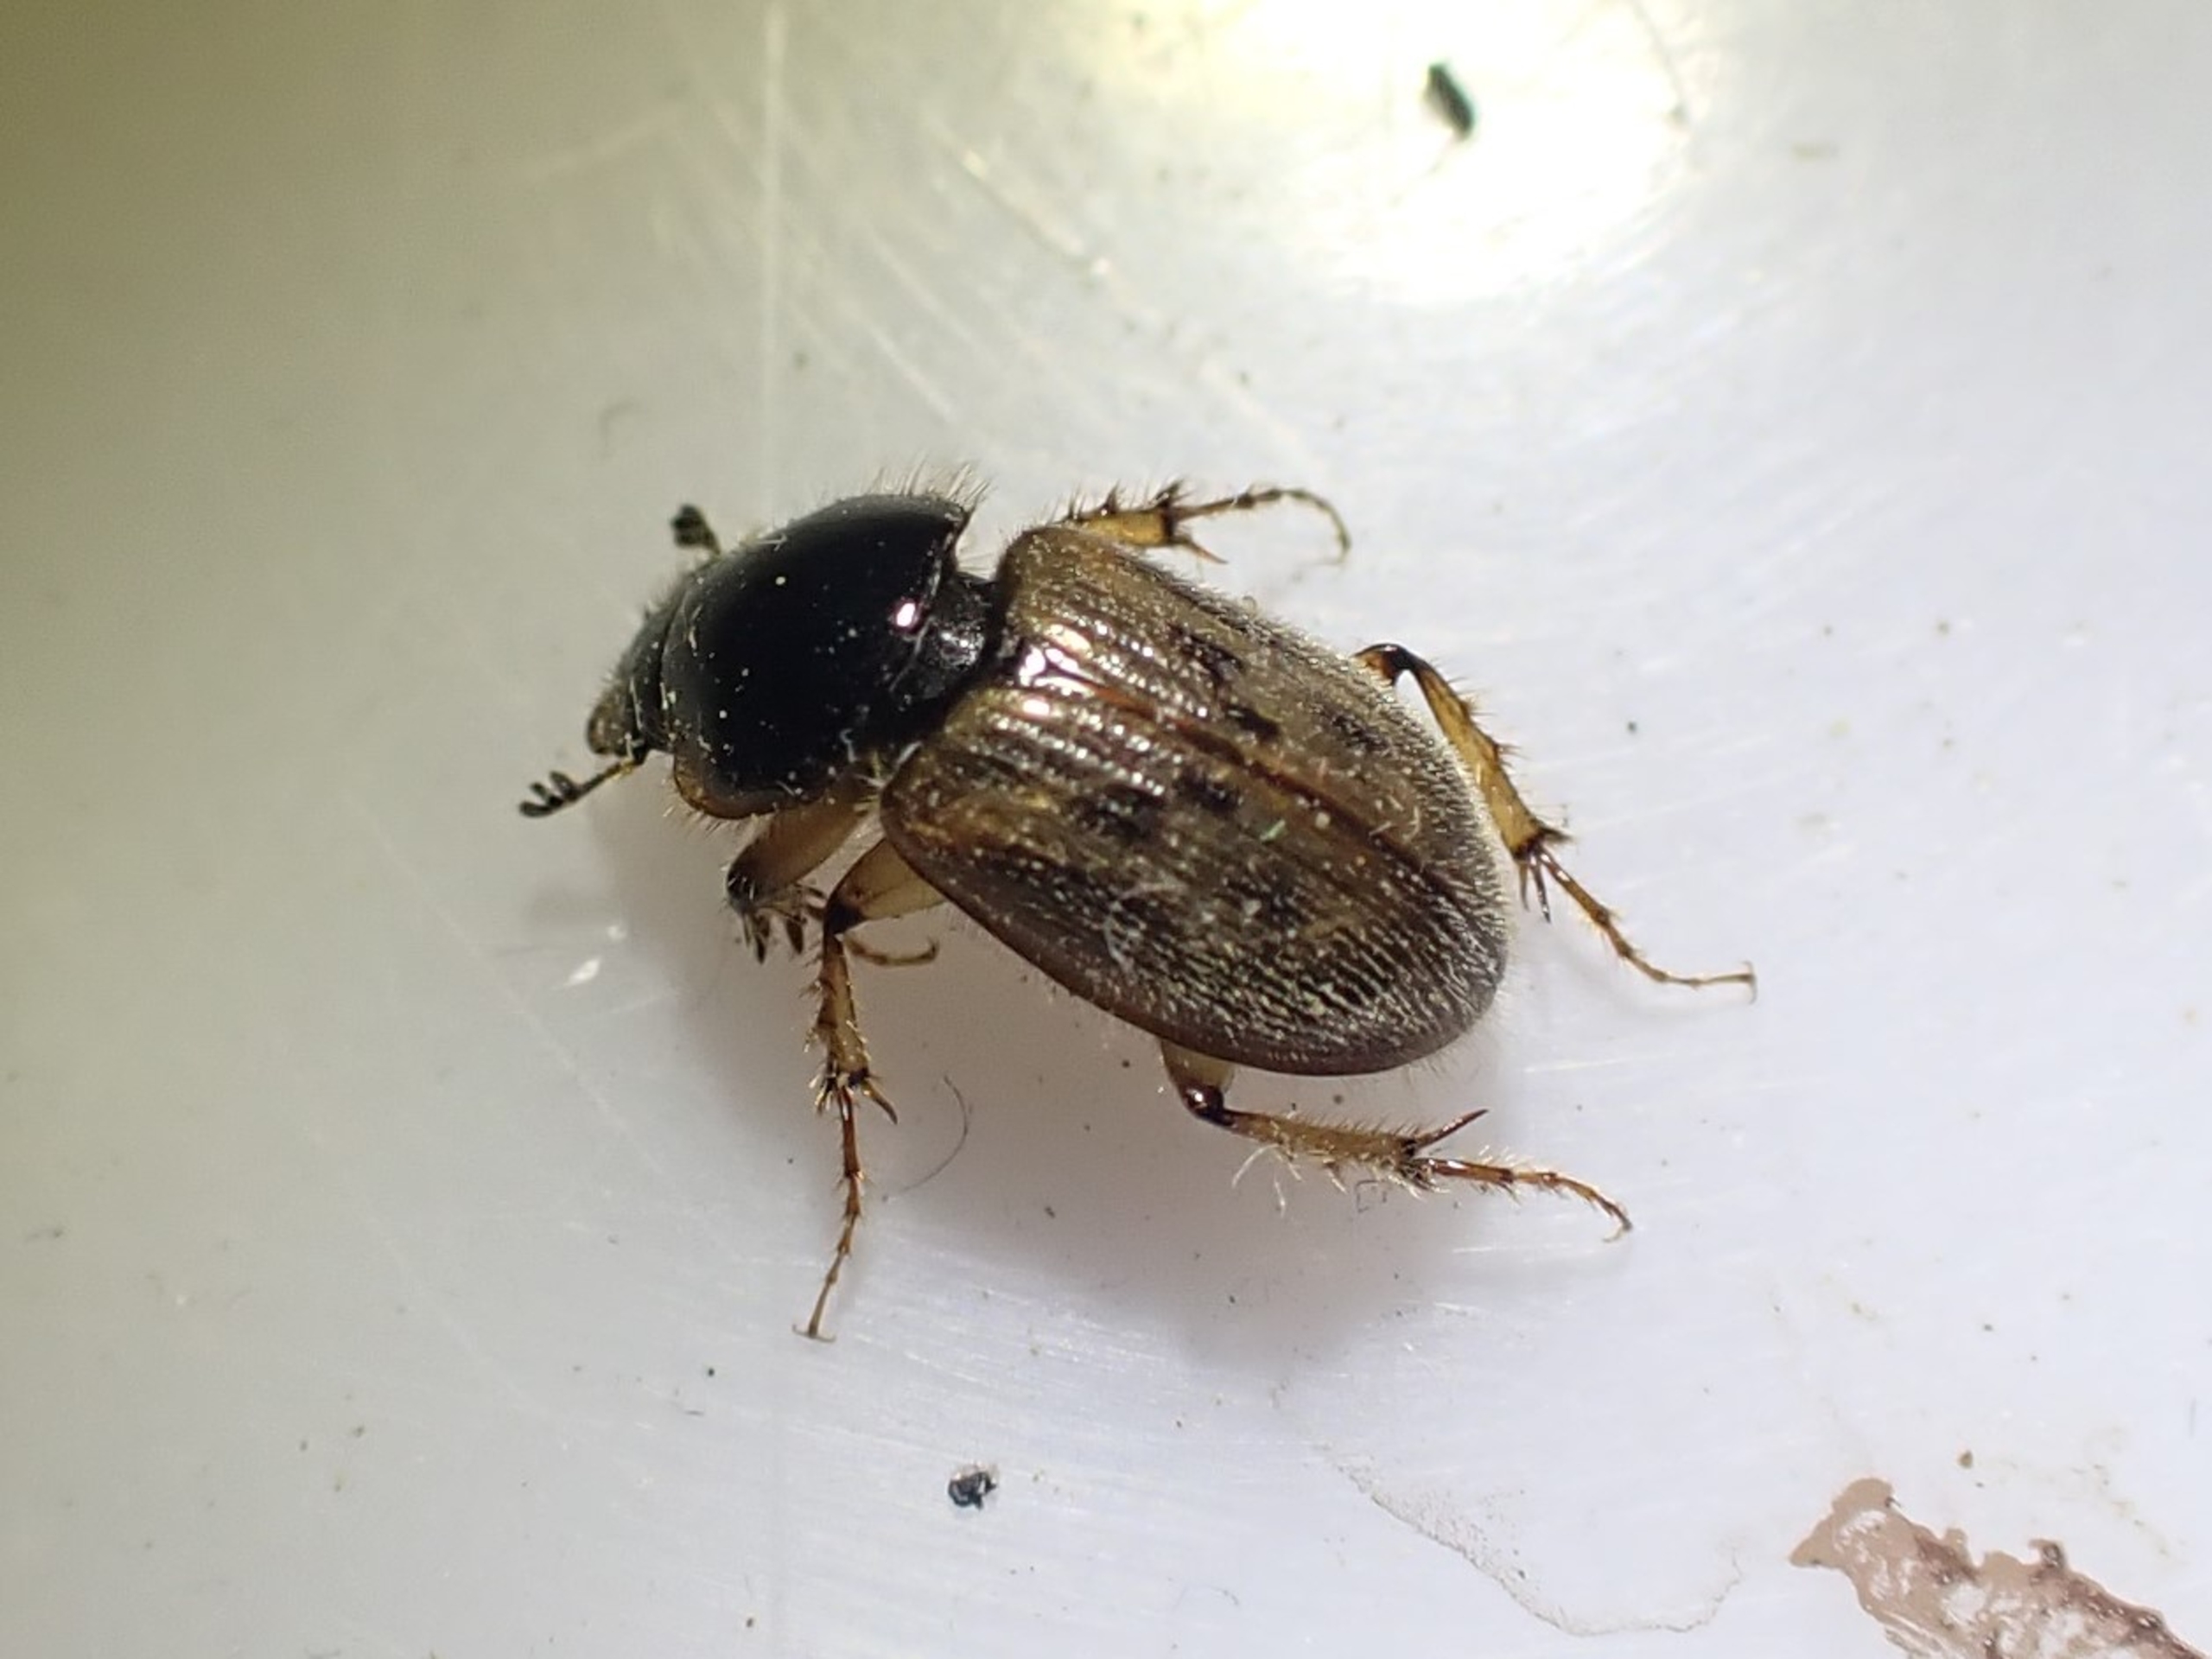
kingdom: Animalia
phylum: Arthropoda
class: Insecta
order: Coleoptera
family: Scarabaeidae
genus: Nimbus
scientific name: Nimbus contaminatus
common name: Sandhåret møgbille
